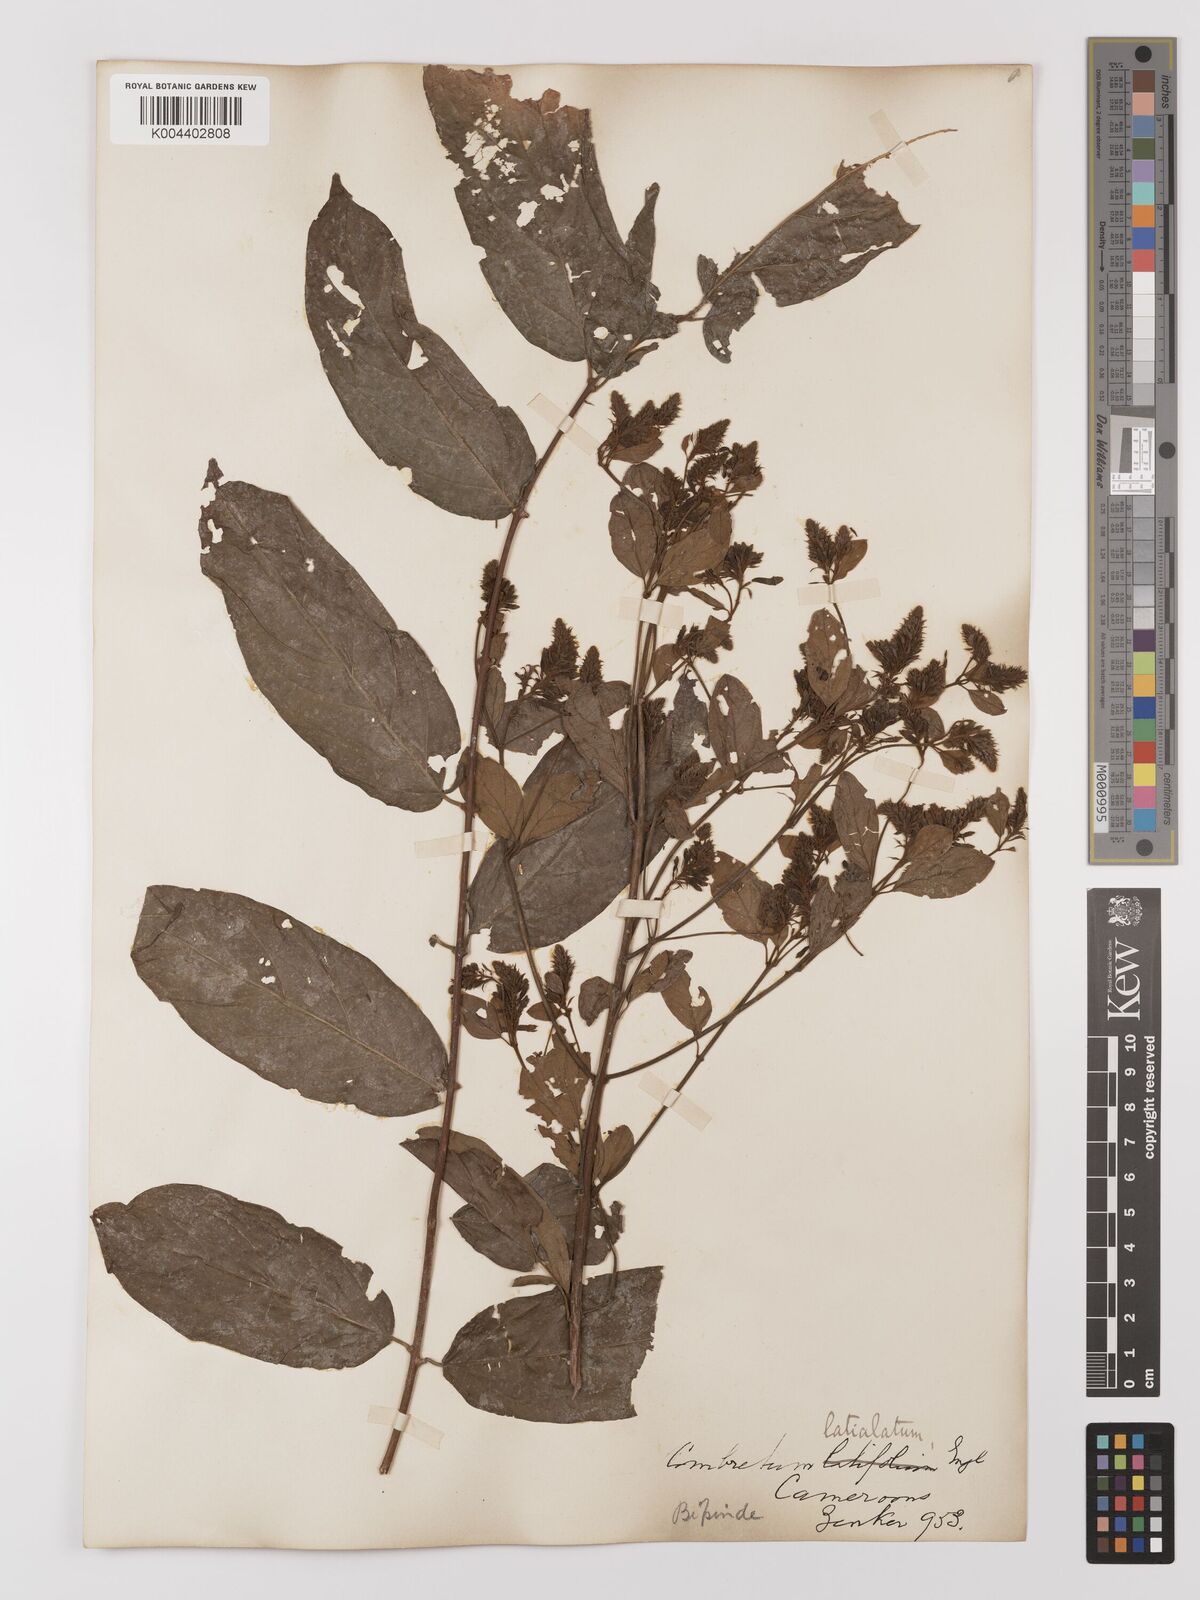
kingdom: Plantae
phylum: Tracheophyta
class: Magnoliopsida
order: Myrtales
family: Combretaceae
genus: Combretum
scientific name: Combretum latialatum
